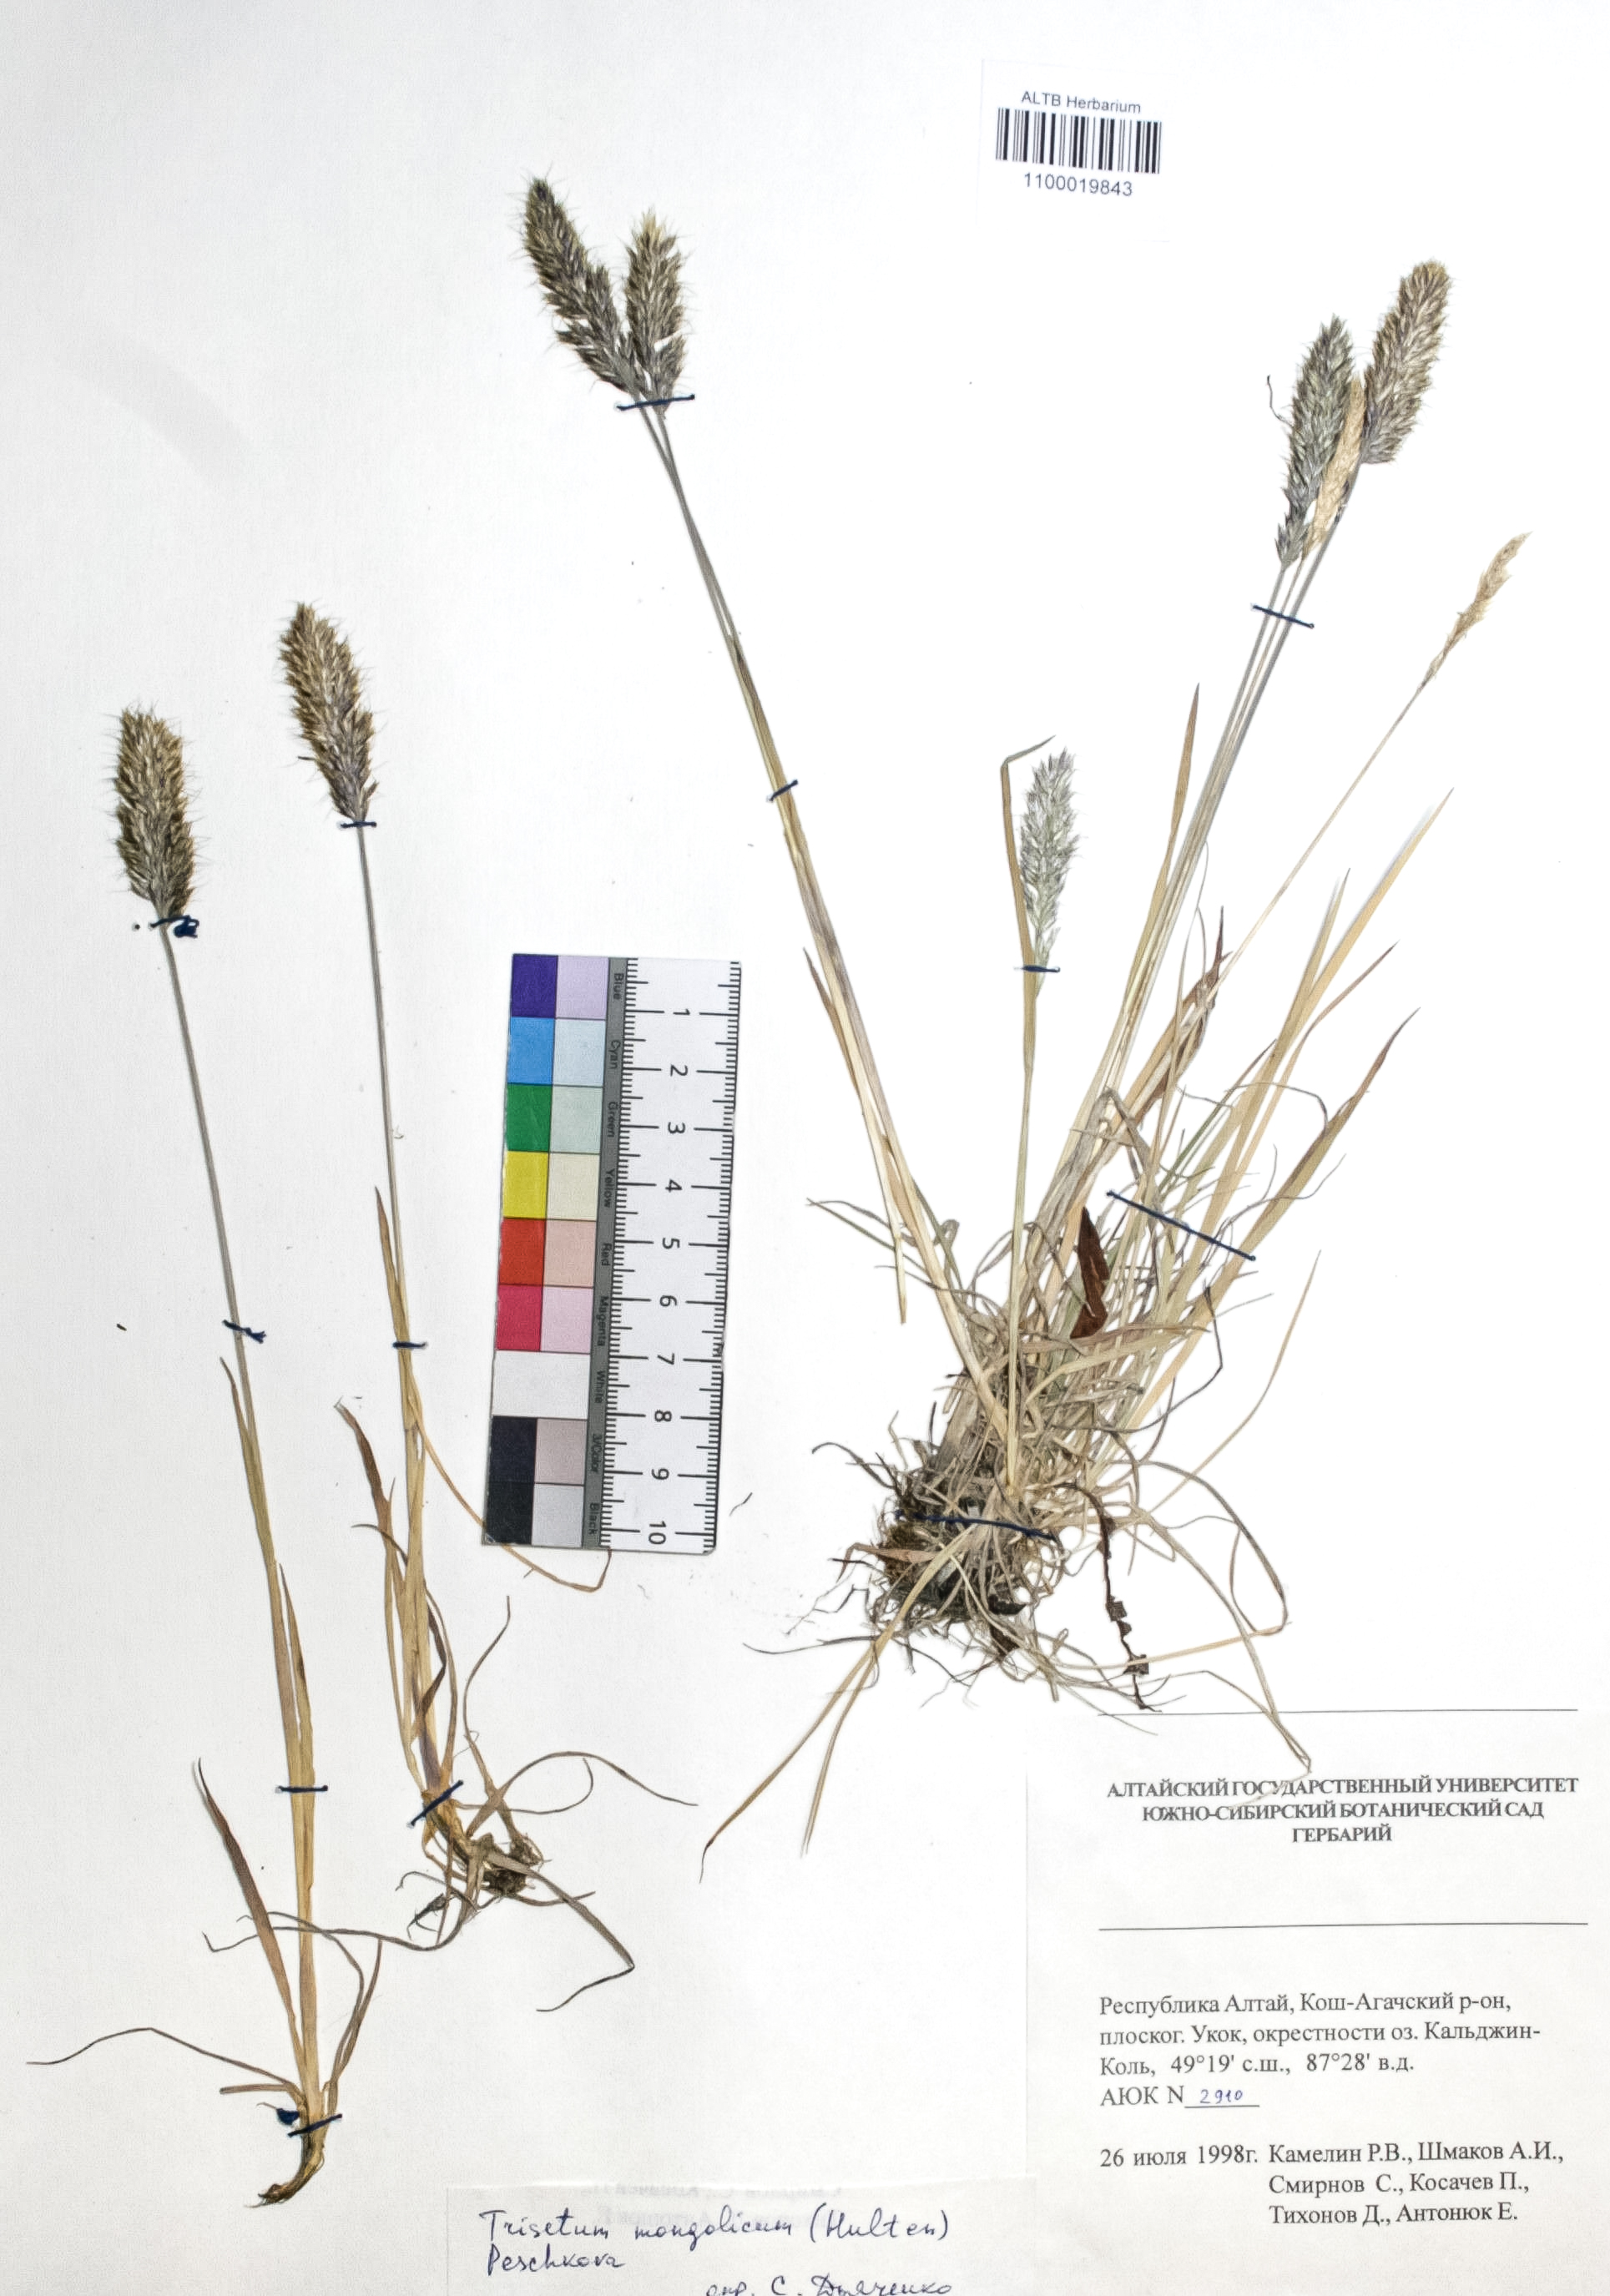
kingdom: Plantae
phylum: Tracheophyta
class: Liliopsida
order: Poales
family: Poaceae
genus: Koeleria
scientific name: Koeleria spicata
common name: Mountain trisetum
